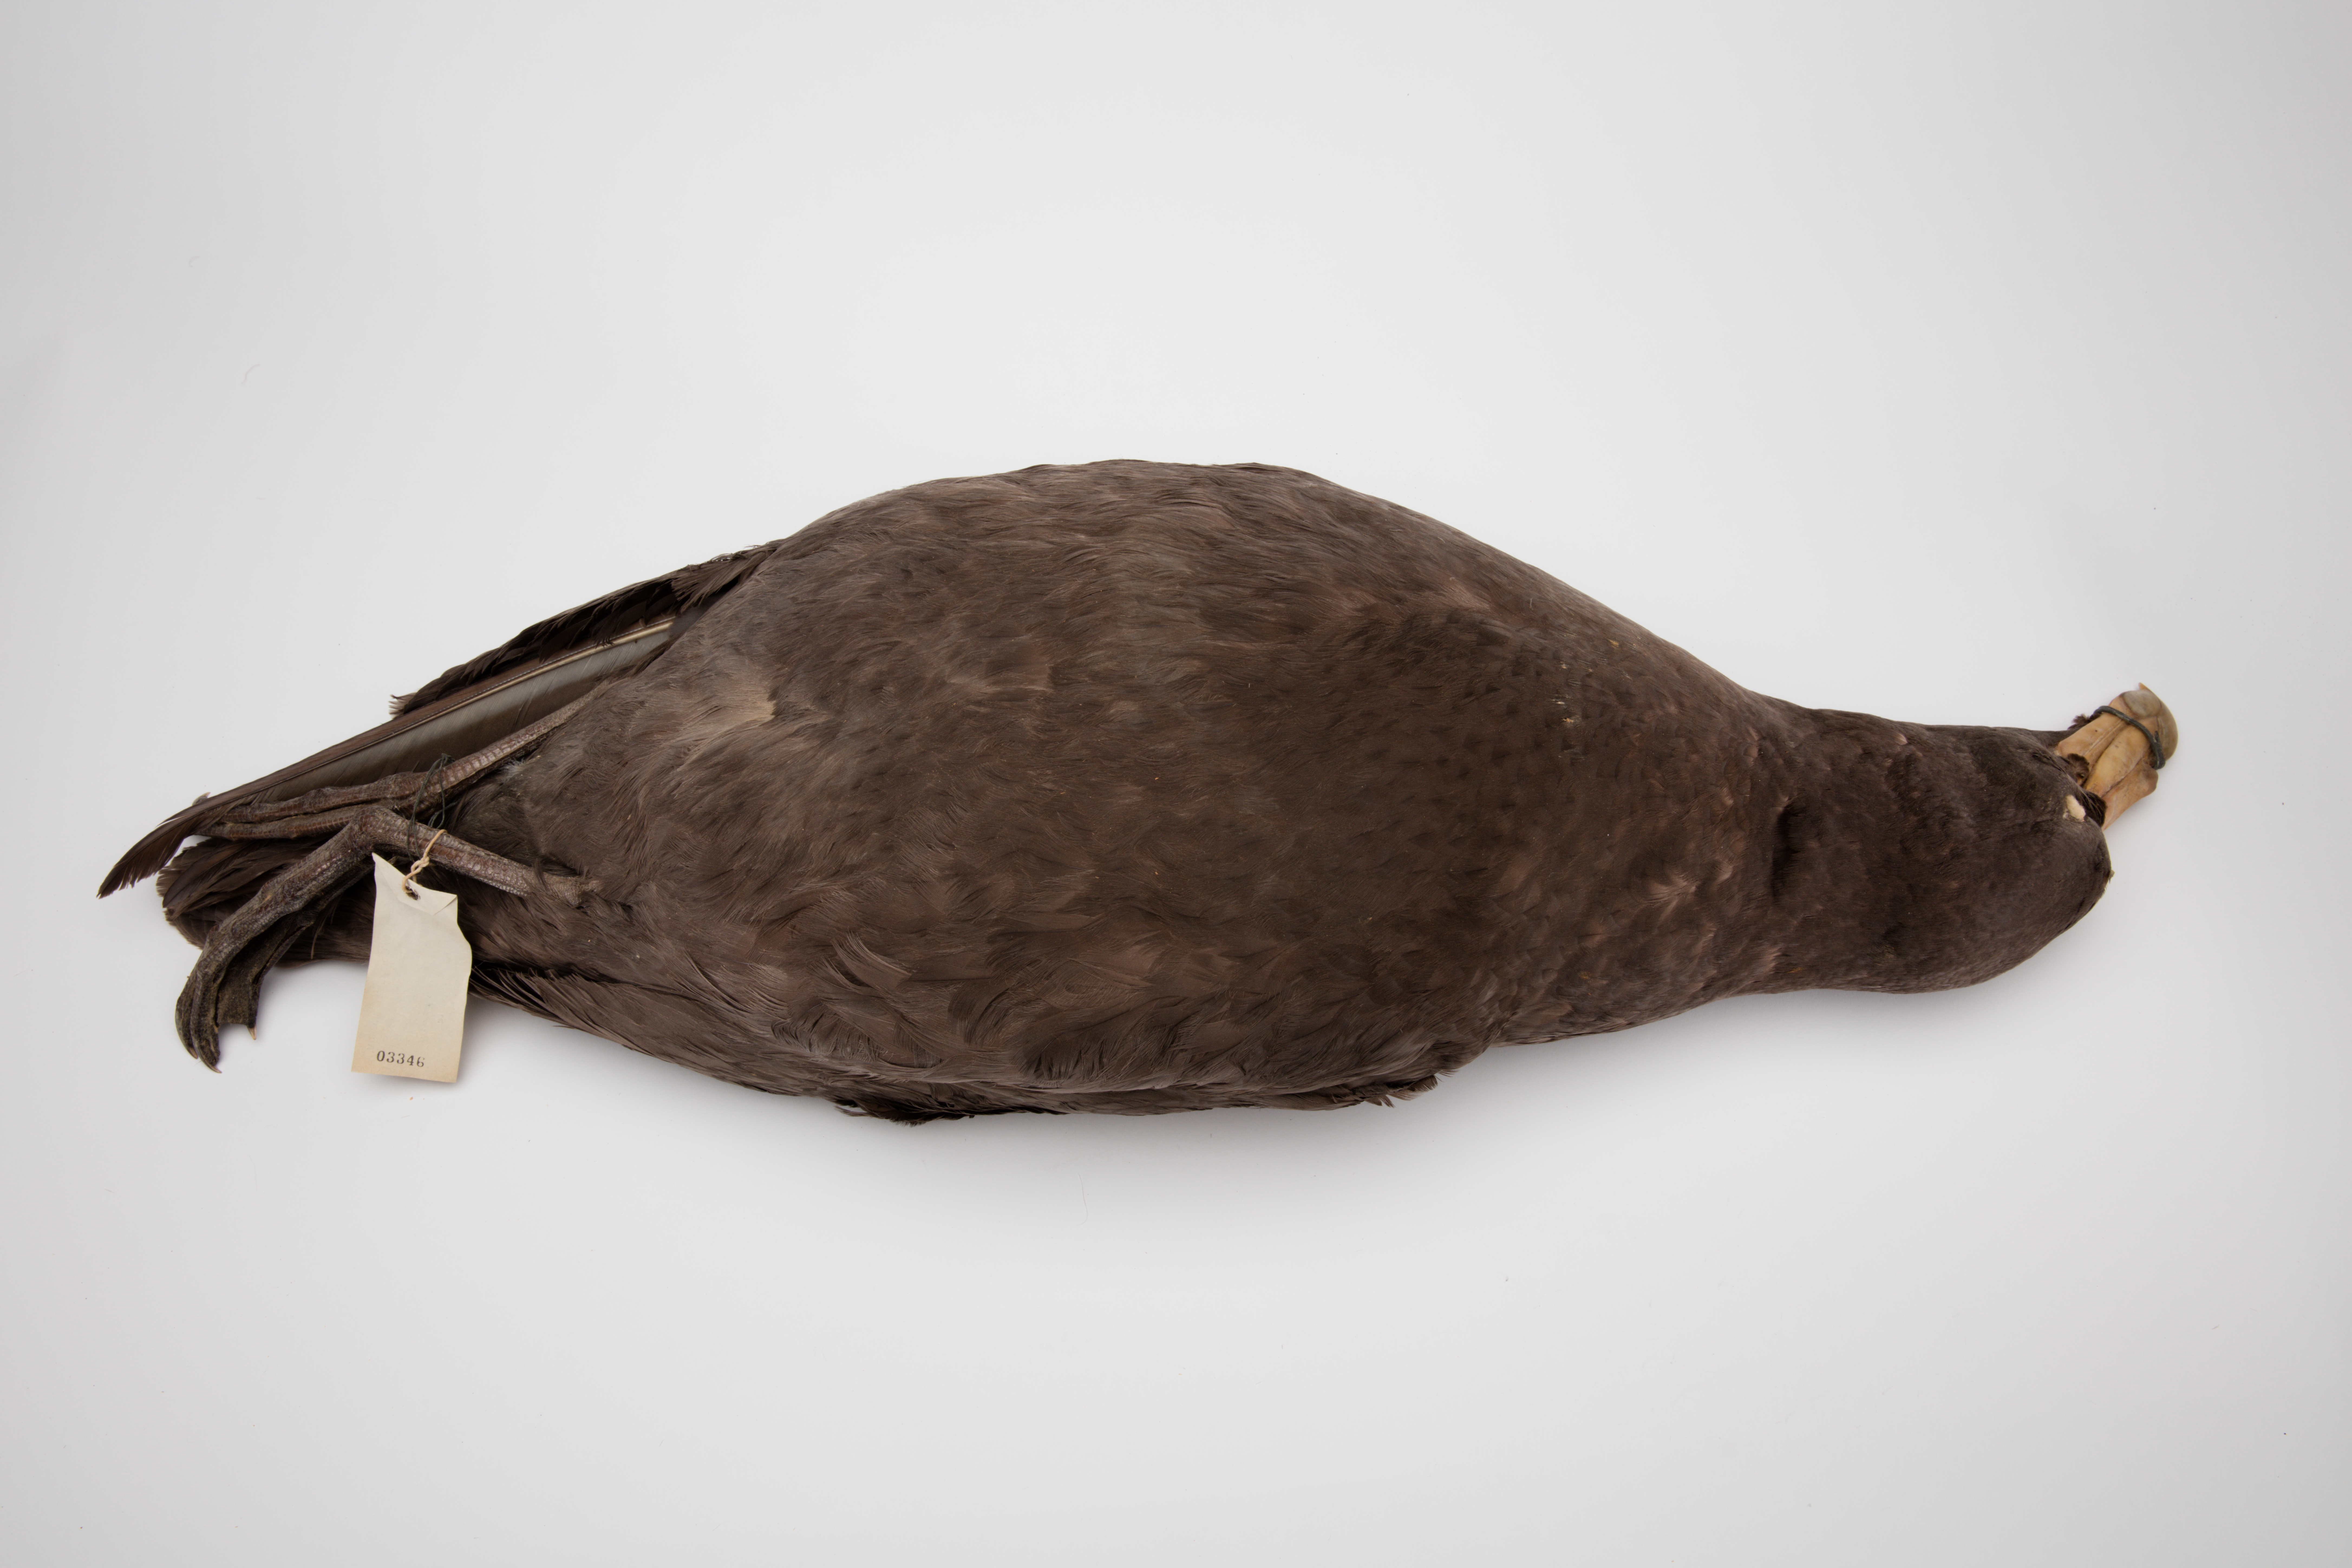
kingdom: Animalia
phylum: Chordata
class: Aves
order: Procellariiformes
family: Procellariidae
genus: Macronectes
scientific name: Macronectes giganteus
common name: Southern giant petrel
